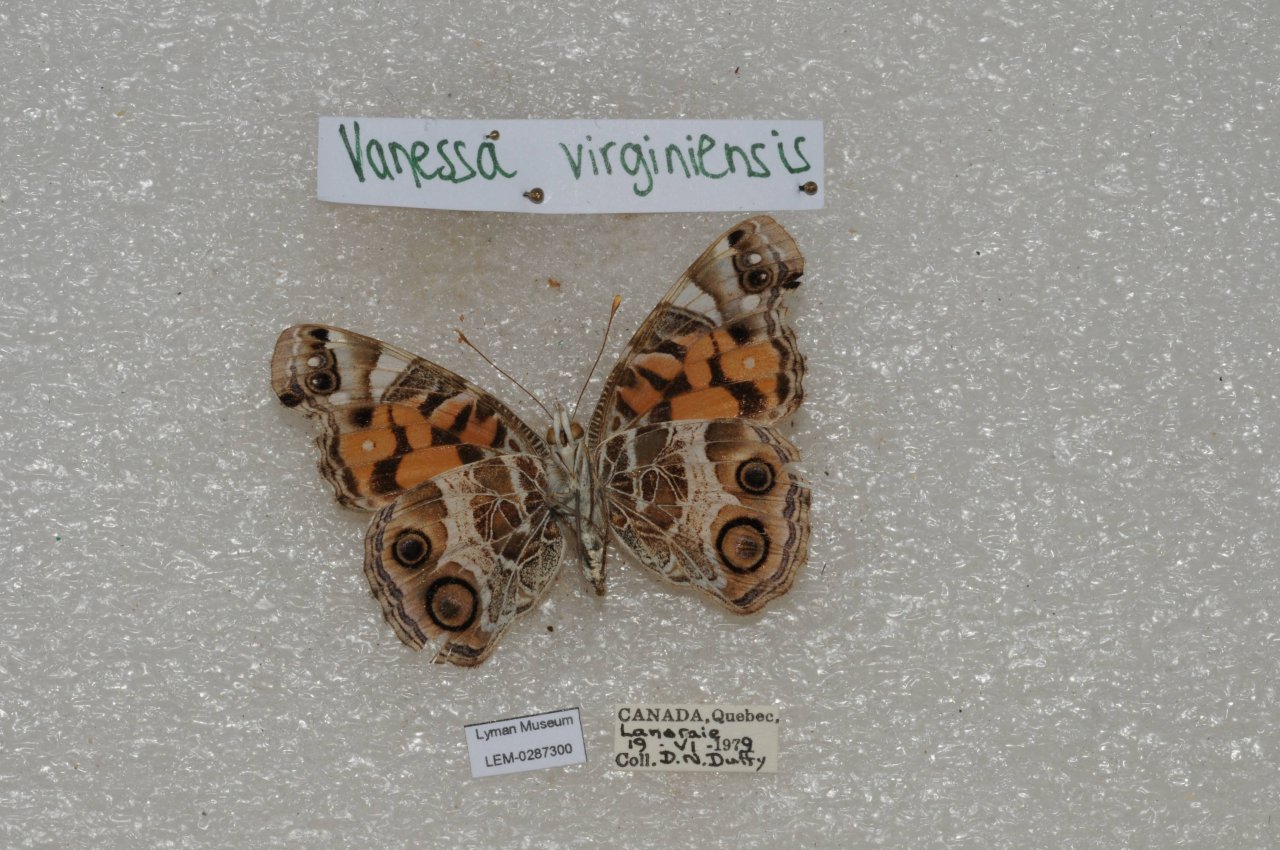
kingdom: Animalia
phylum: Arthropoda
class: Insecta
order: Lepidoptera
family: Nymphalidae
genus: Vanessa
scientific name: Vanessa virginiensis
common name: American Lady
